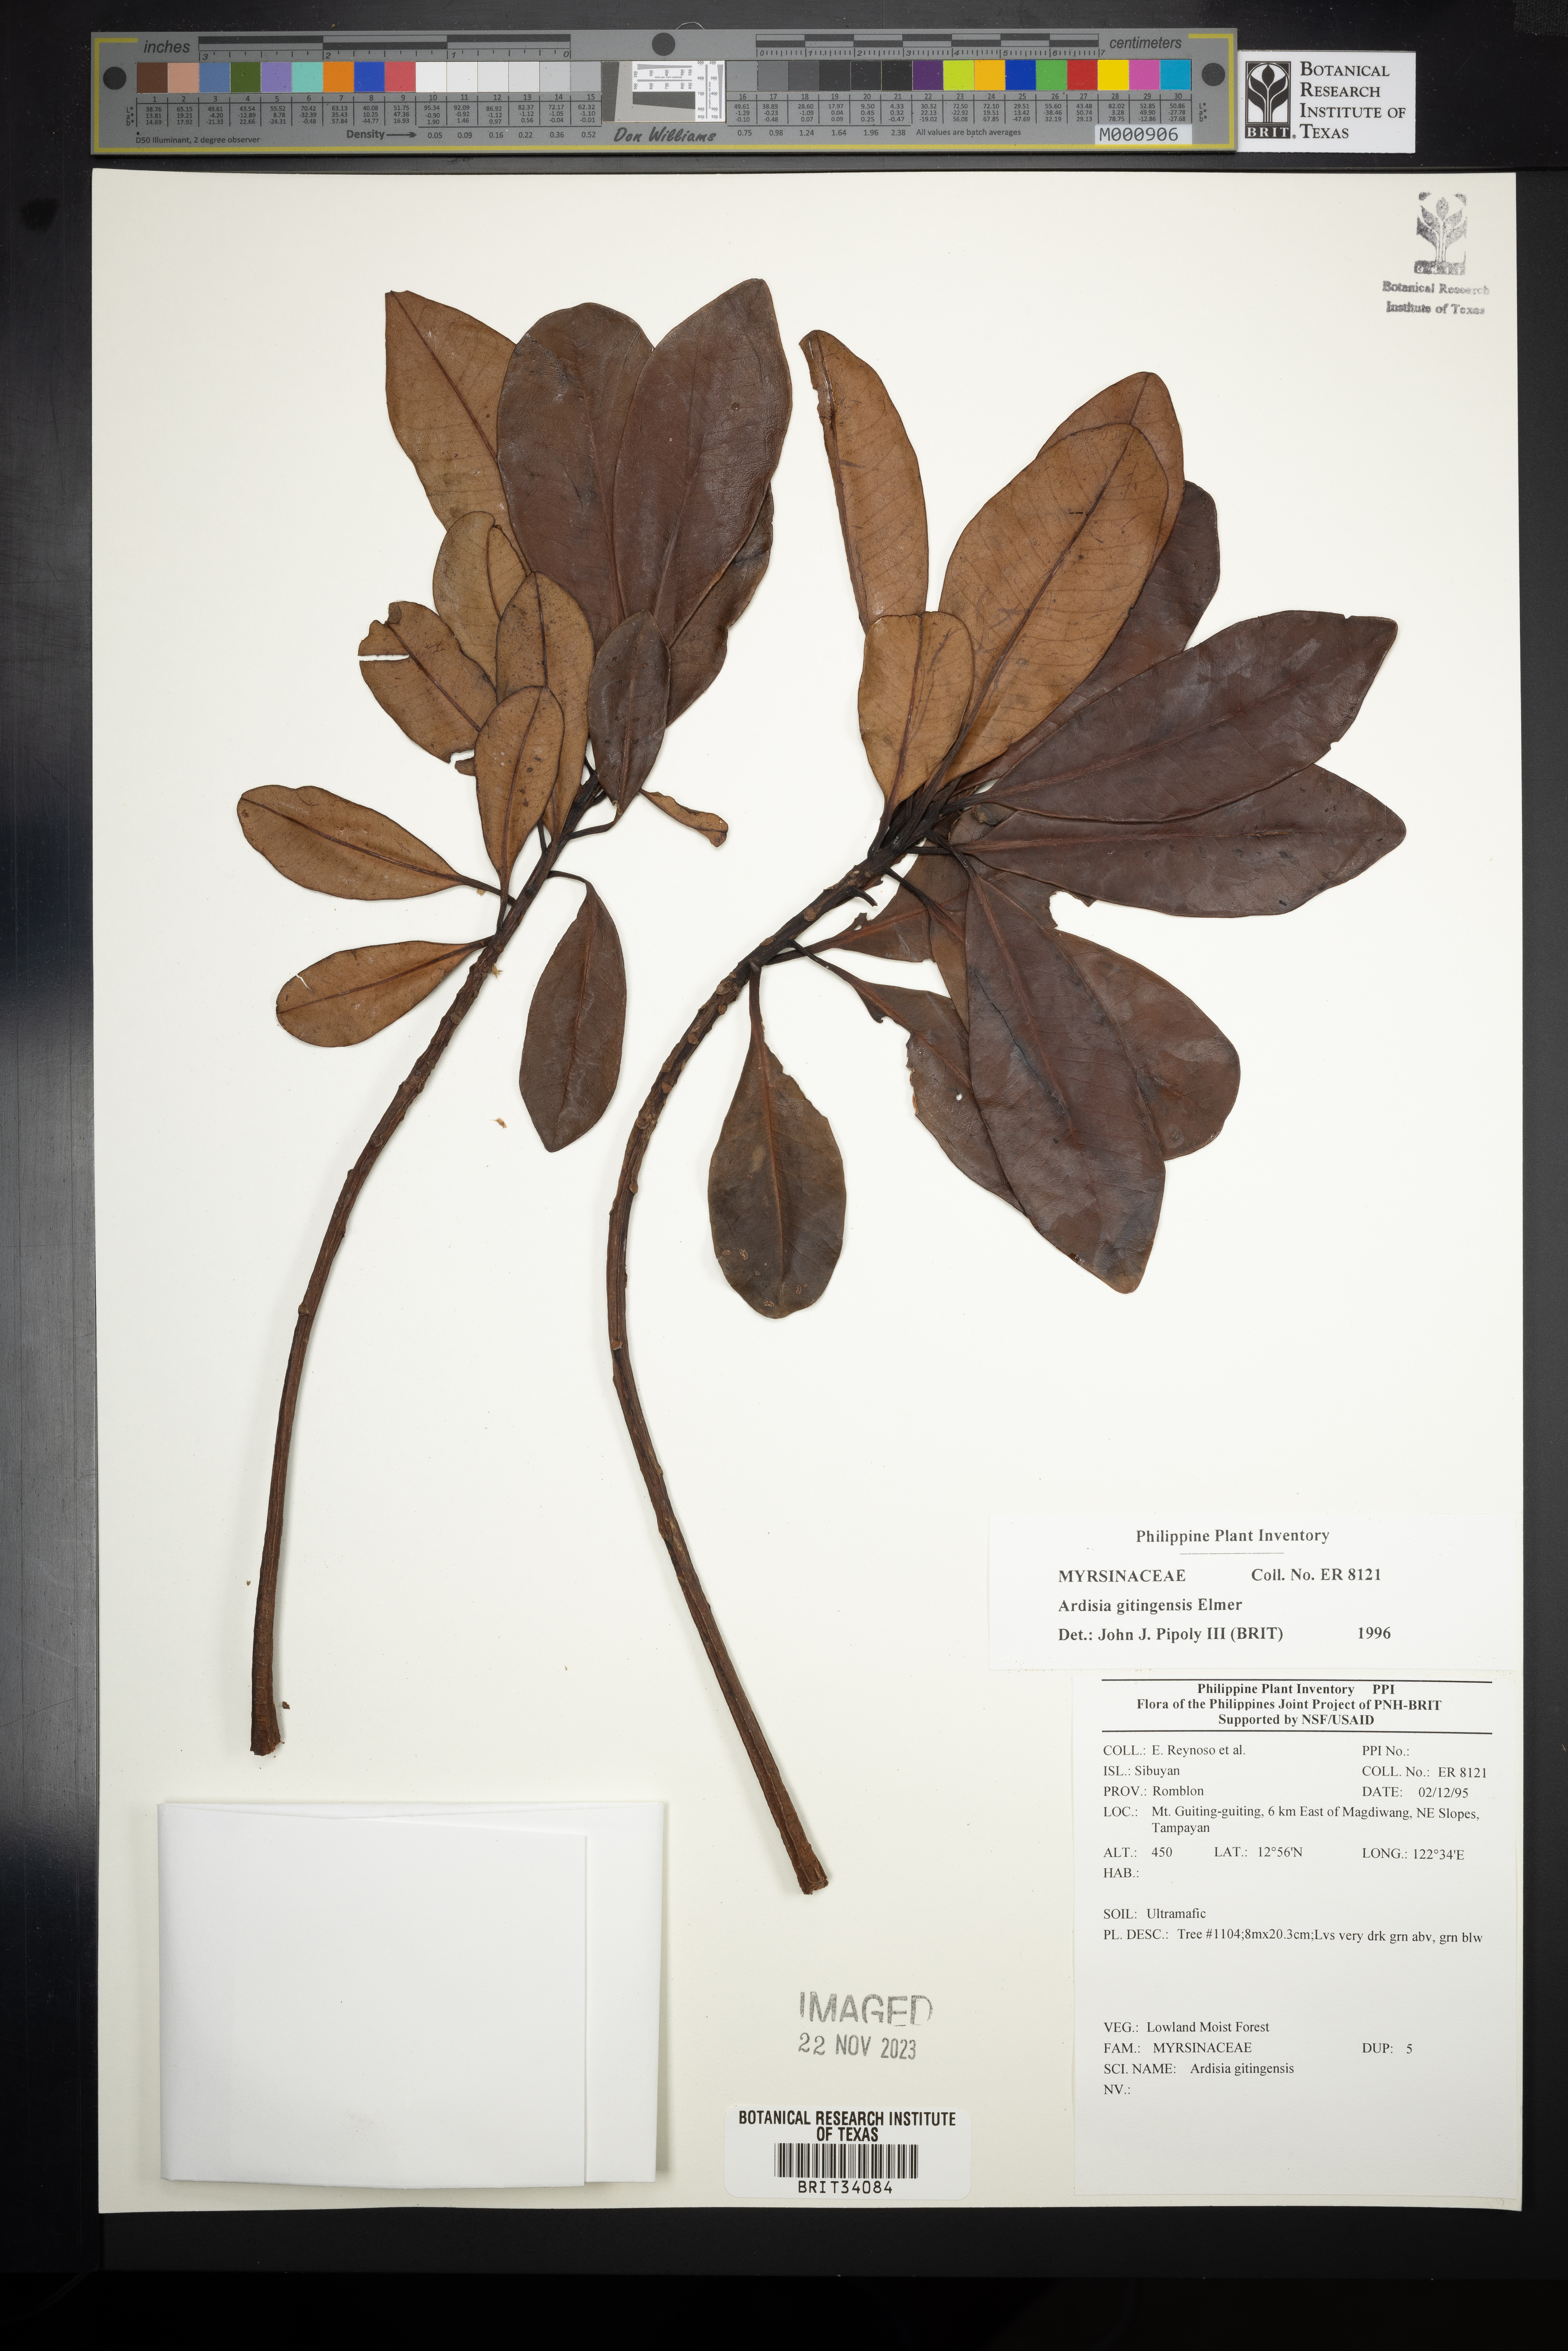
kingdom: Plantae
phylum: Tracheophyta
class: Magnoliopsida
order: Ericales
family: Primulaceae
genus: Ardisia
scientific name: Ardisia darlingii
